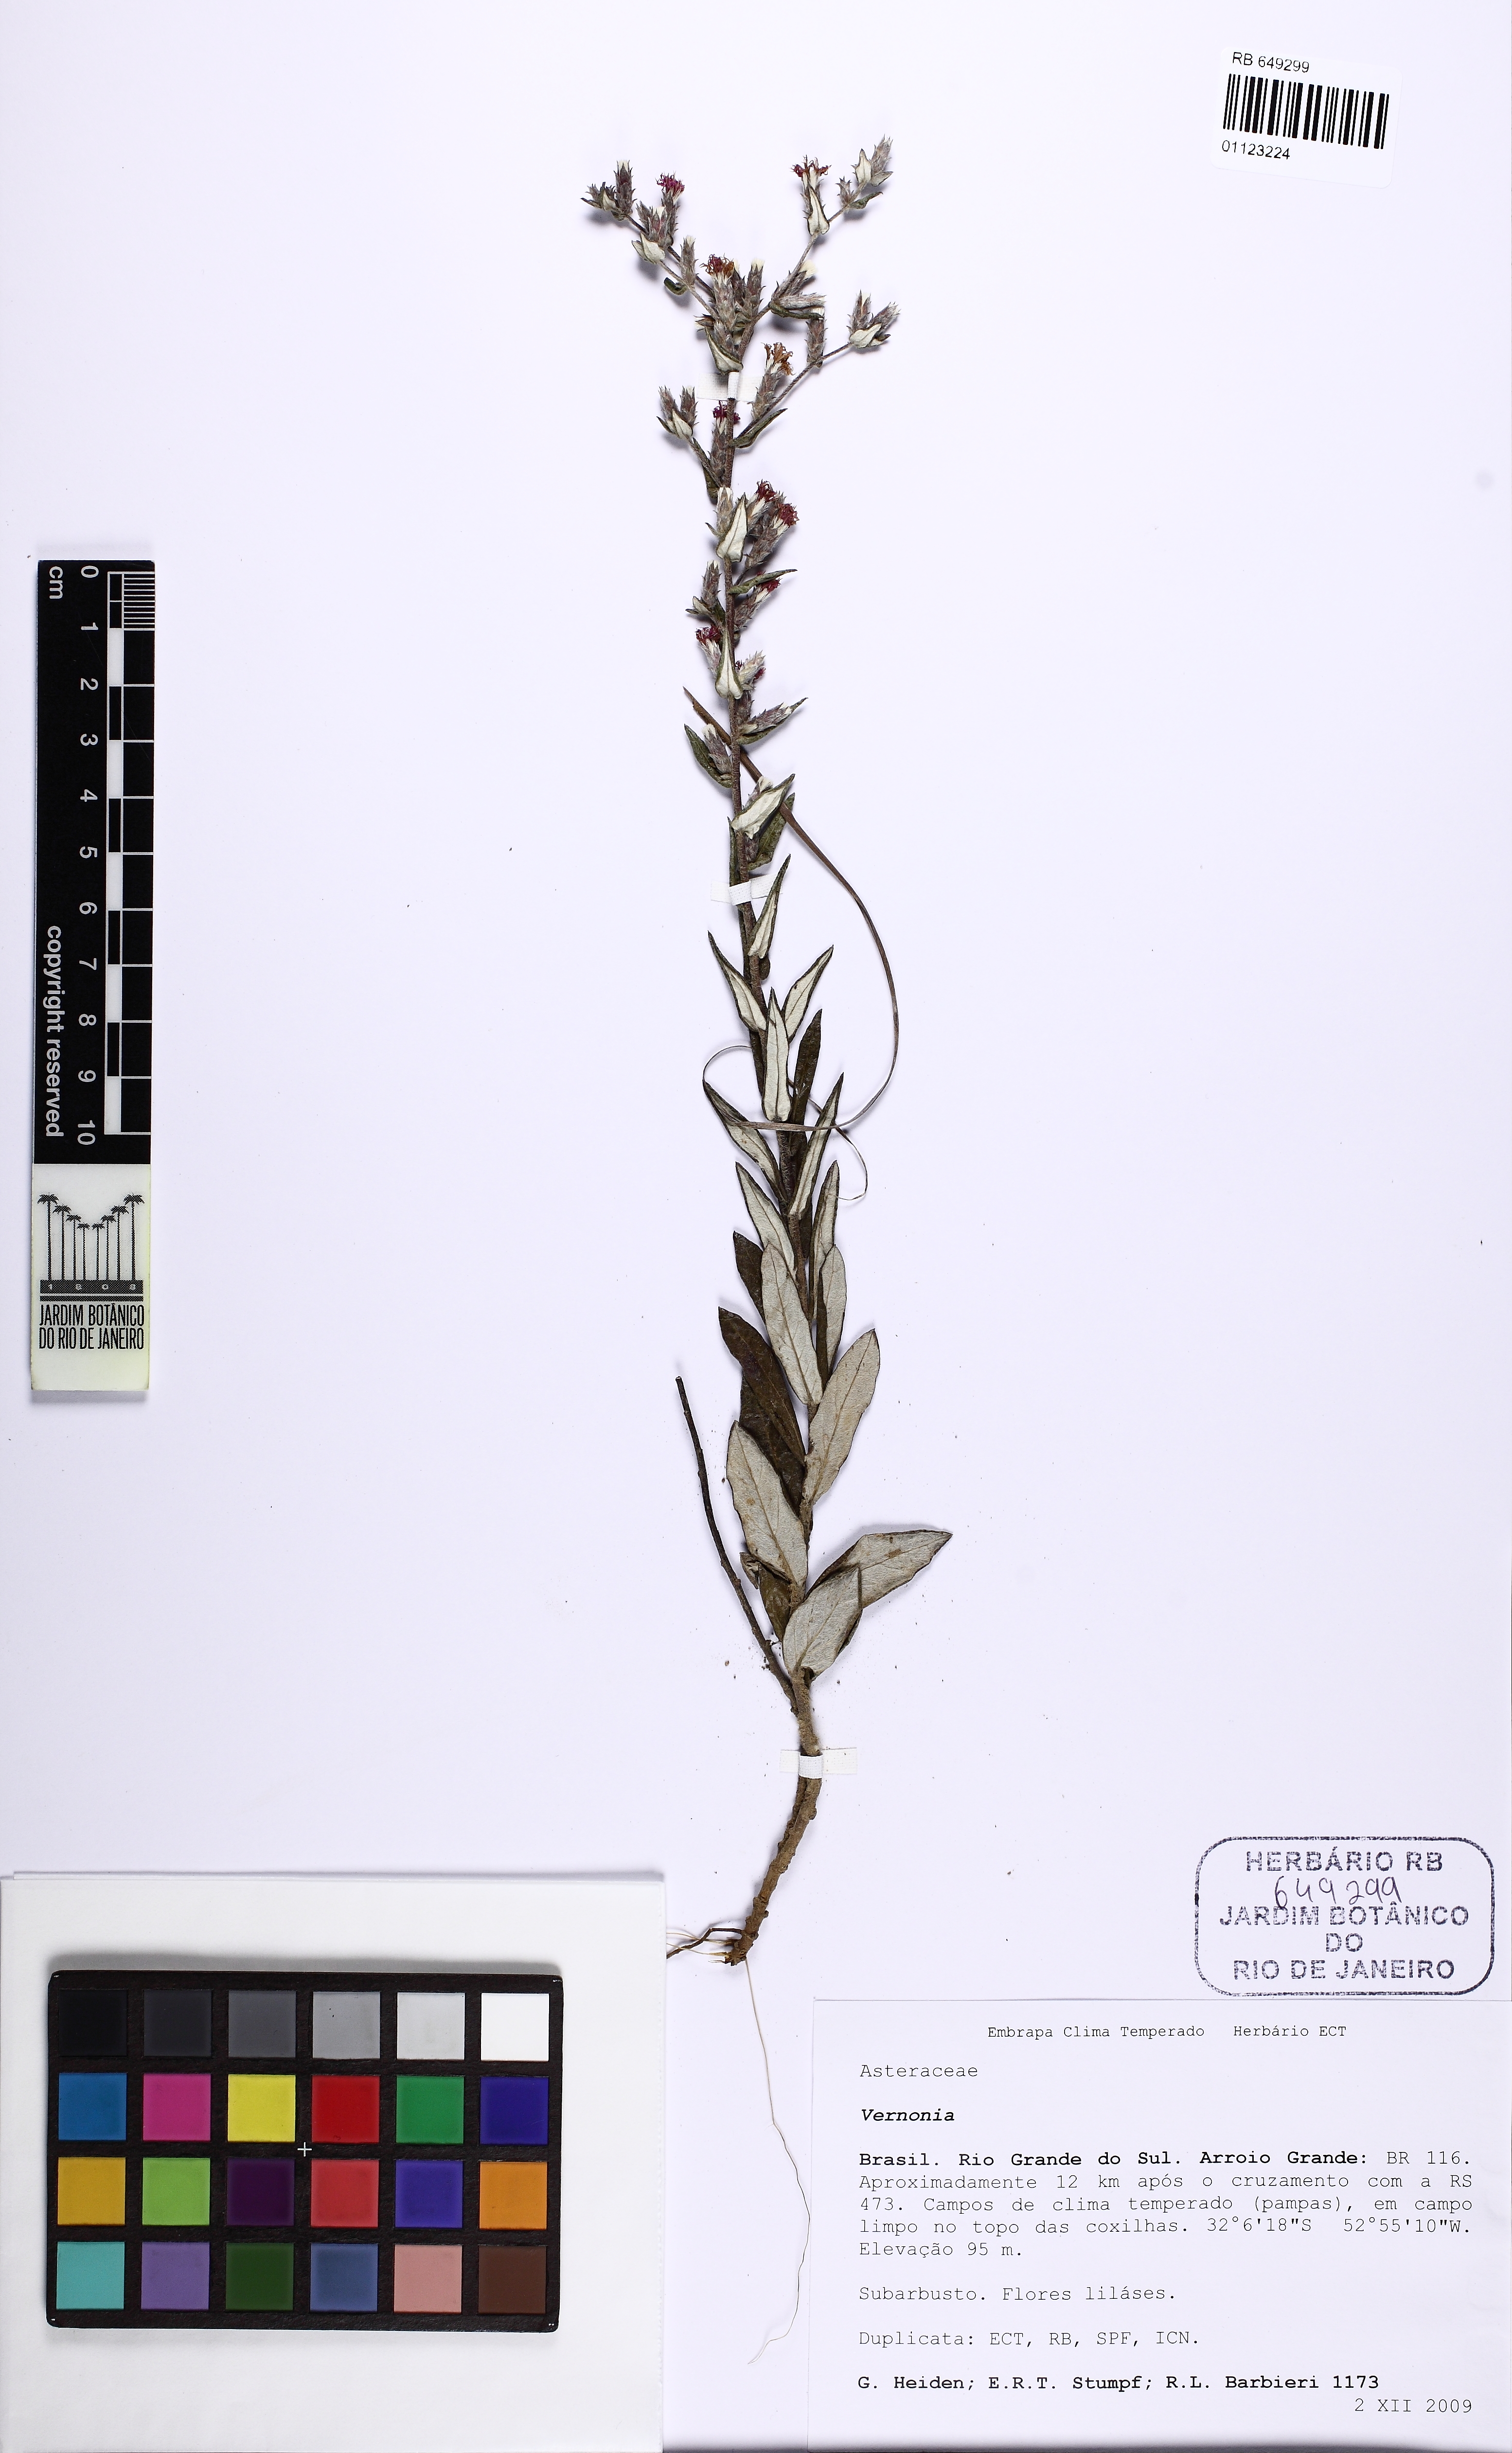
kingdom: Plantae
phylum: Tracheophyta
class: Magnoliopsida
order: Asterales
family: Asteraceae
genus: Vernonia
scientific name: Vernonia
